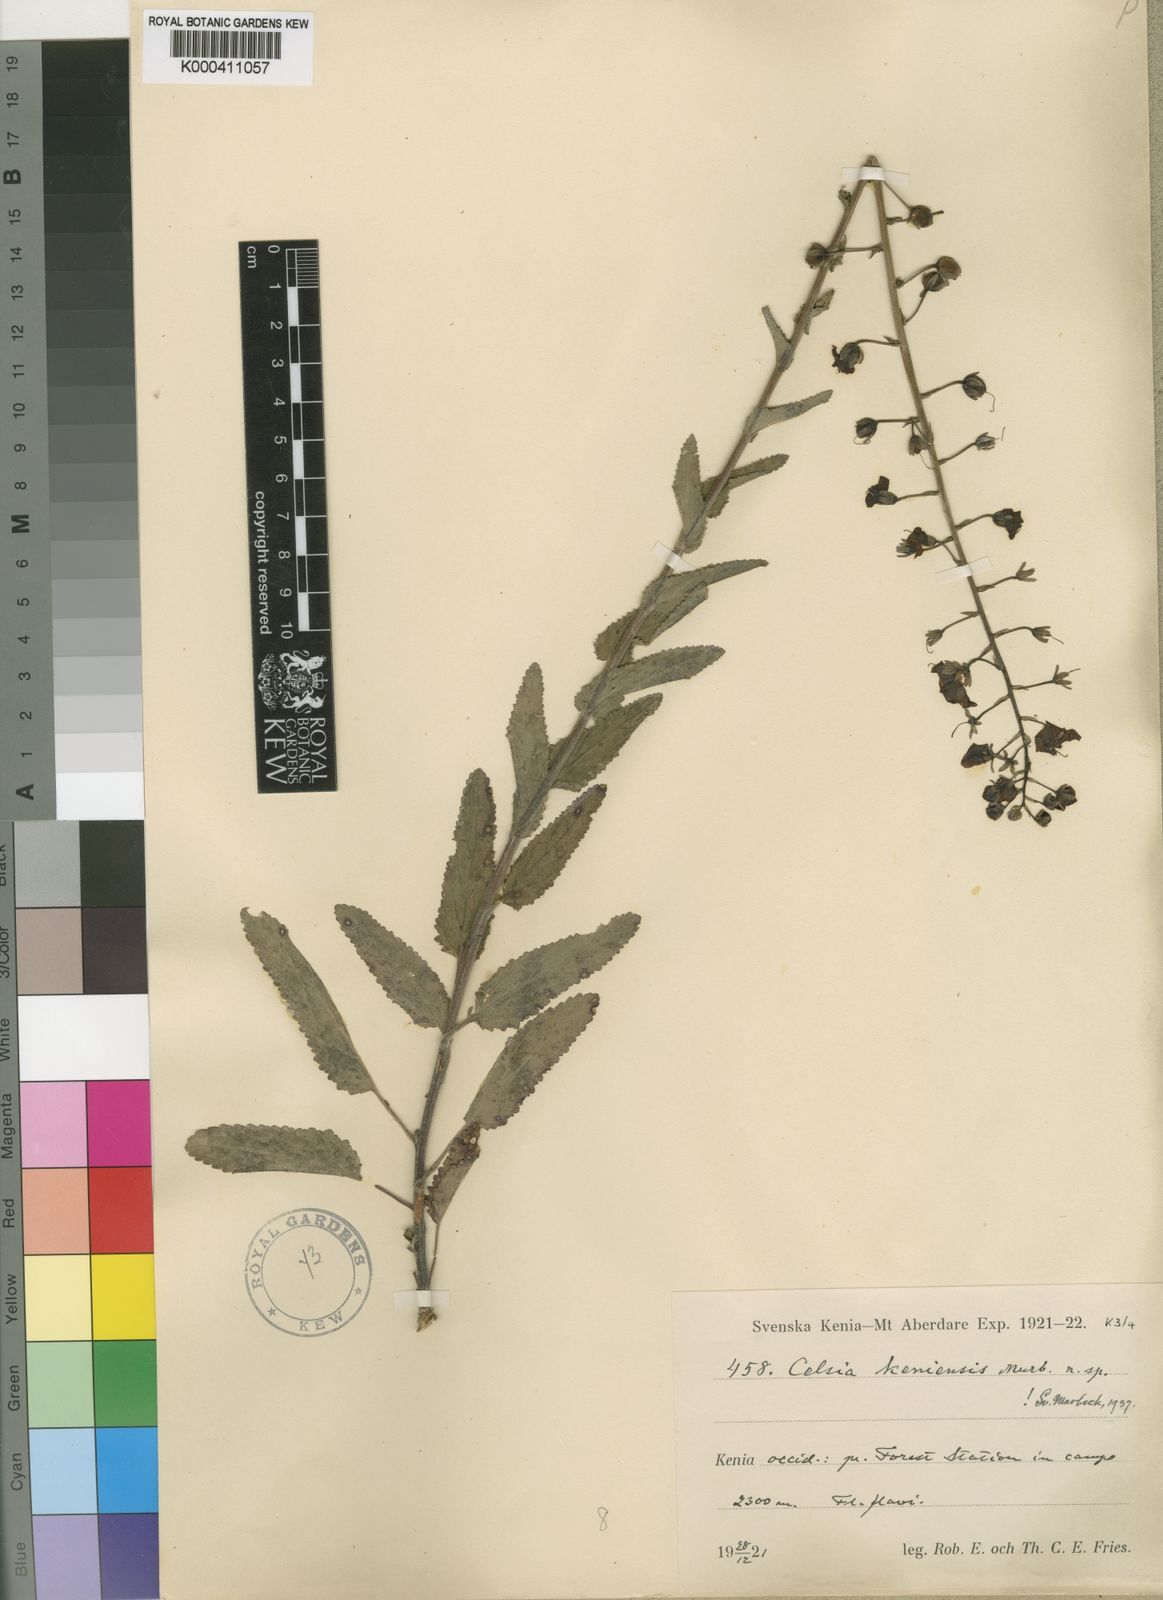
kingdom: Plantae
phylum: Tracheophyta
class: Magnoliopsida
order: Lamiales
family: Scrophulariaceae
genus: Rhabdotosperma
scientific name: Rhabdotosperma brevipedicellata
